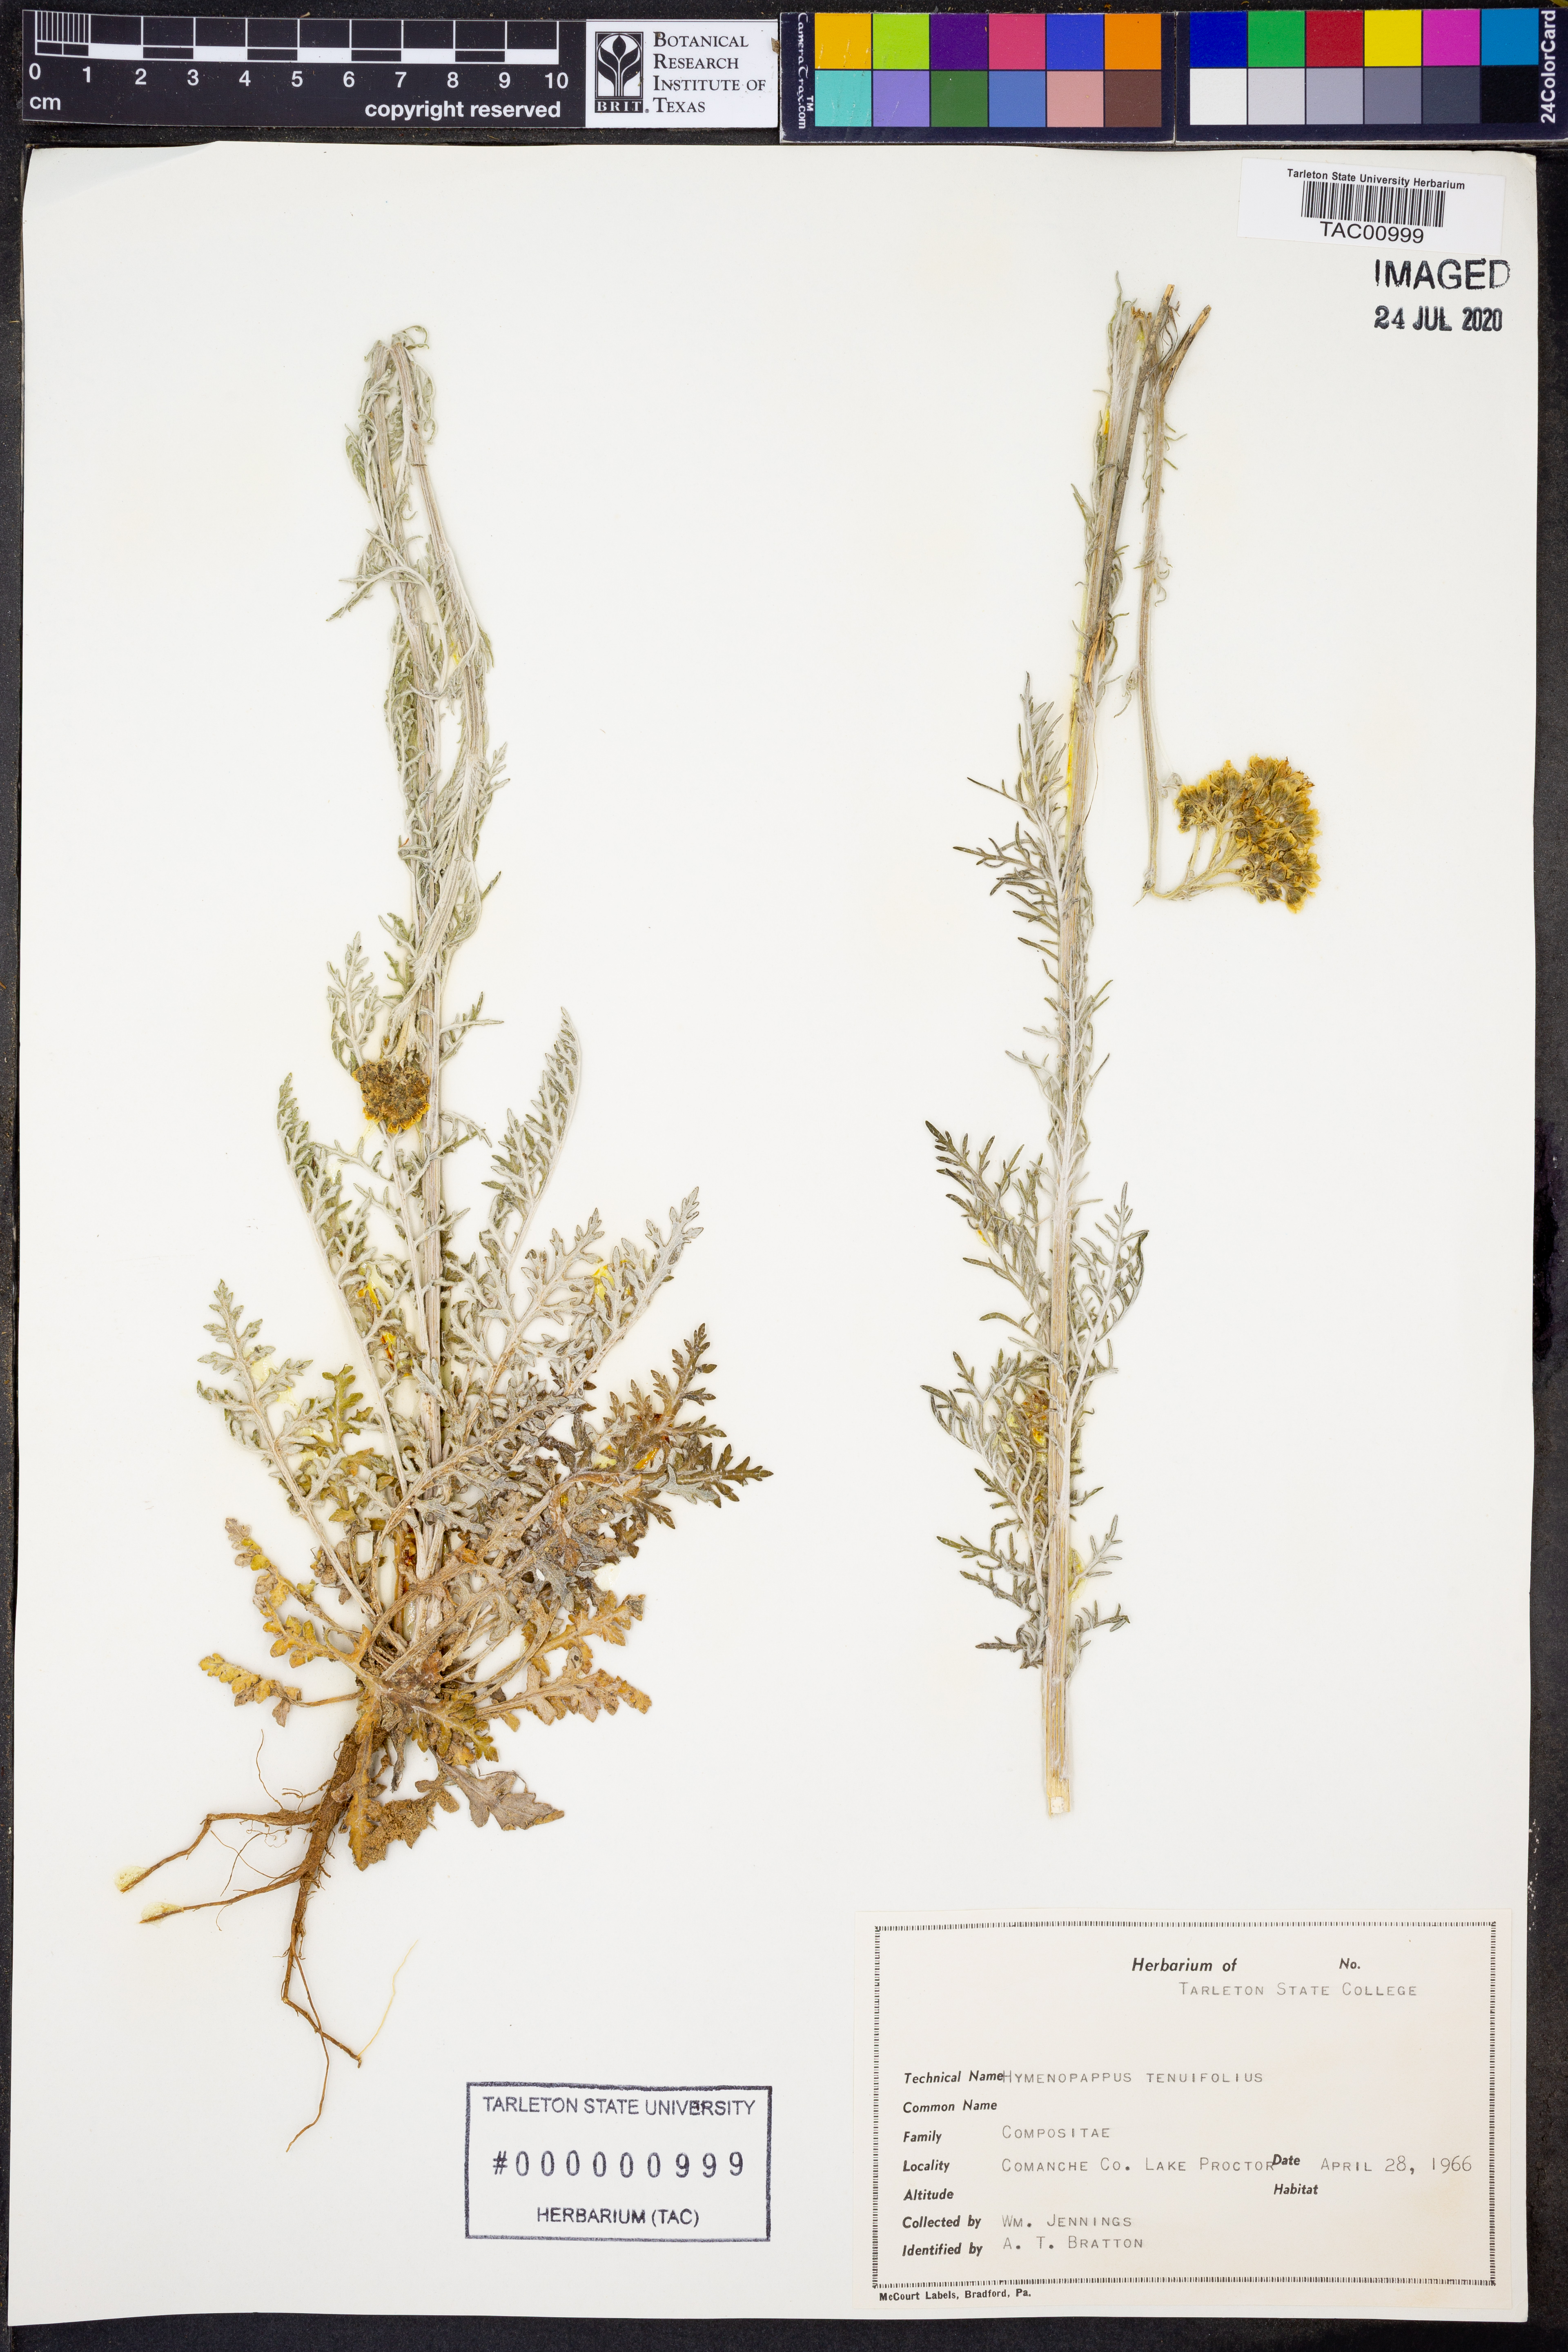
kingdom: Plantae
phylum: Tracheophyta
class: Magnoliopsida
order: Asterales
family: Asteraceae
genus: Hymenopappus
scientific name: Hymenopappus tenuifolius
